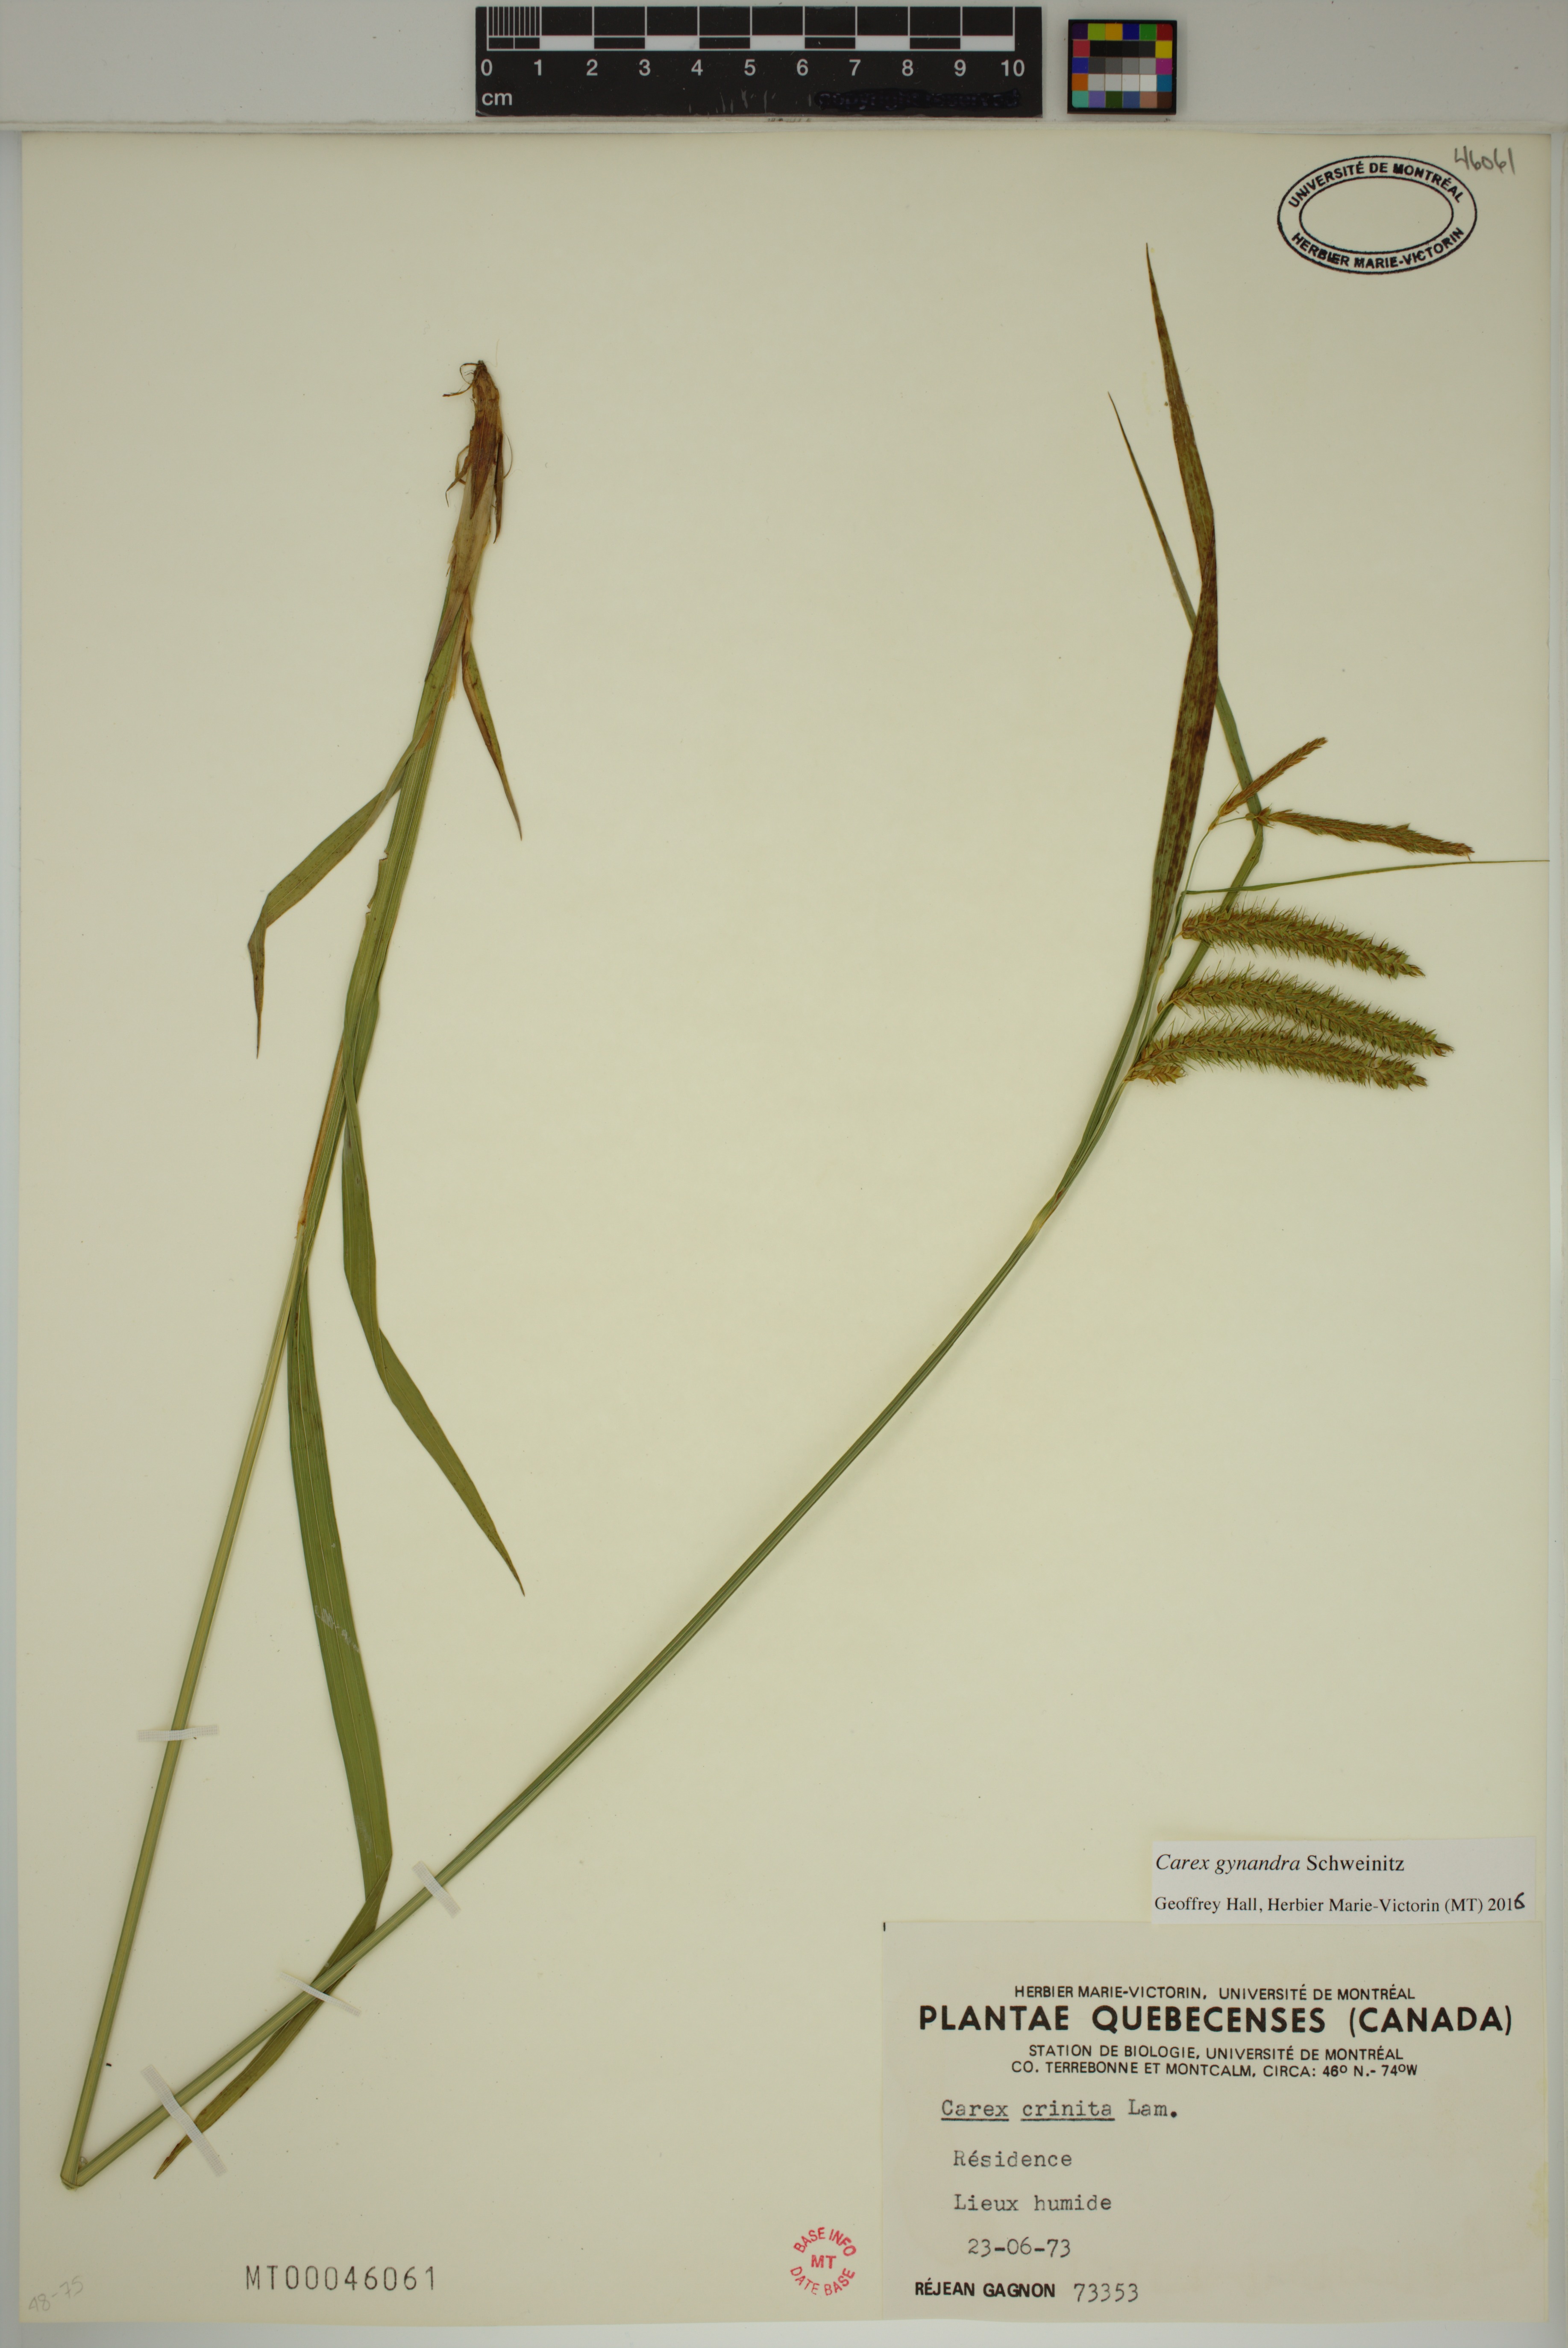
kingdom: Plantae
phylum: Tracheophyta
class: Liliopsida
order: Poales
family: Cyperaceae
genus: Carex
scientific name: Carex gynandra
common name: Nodding sedge
